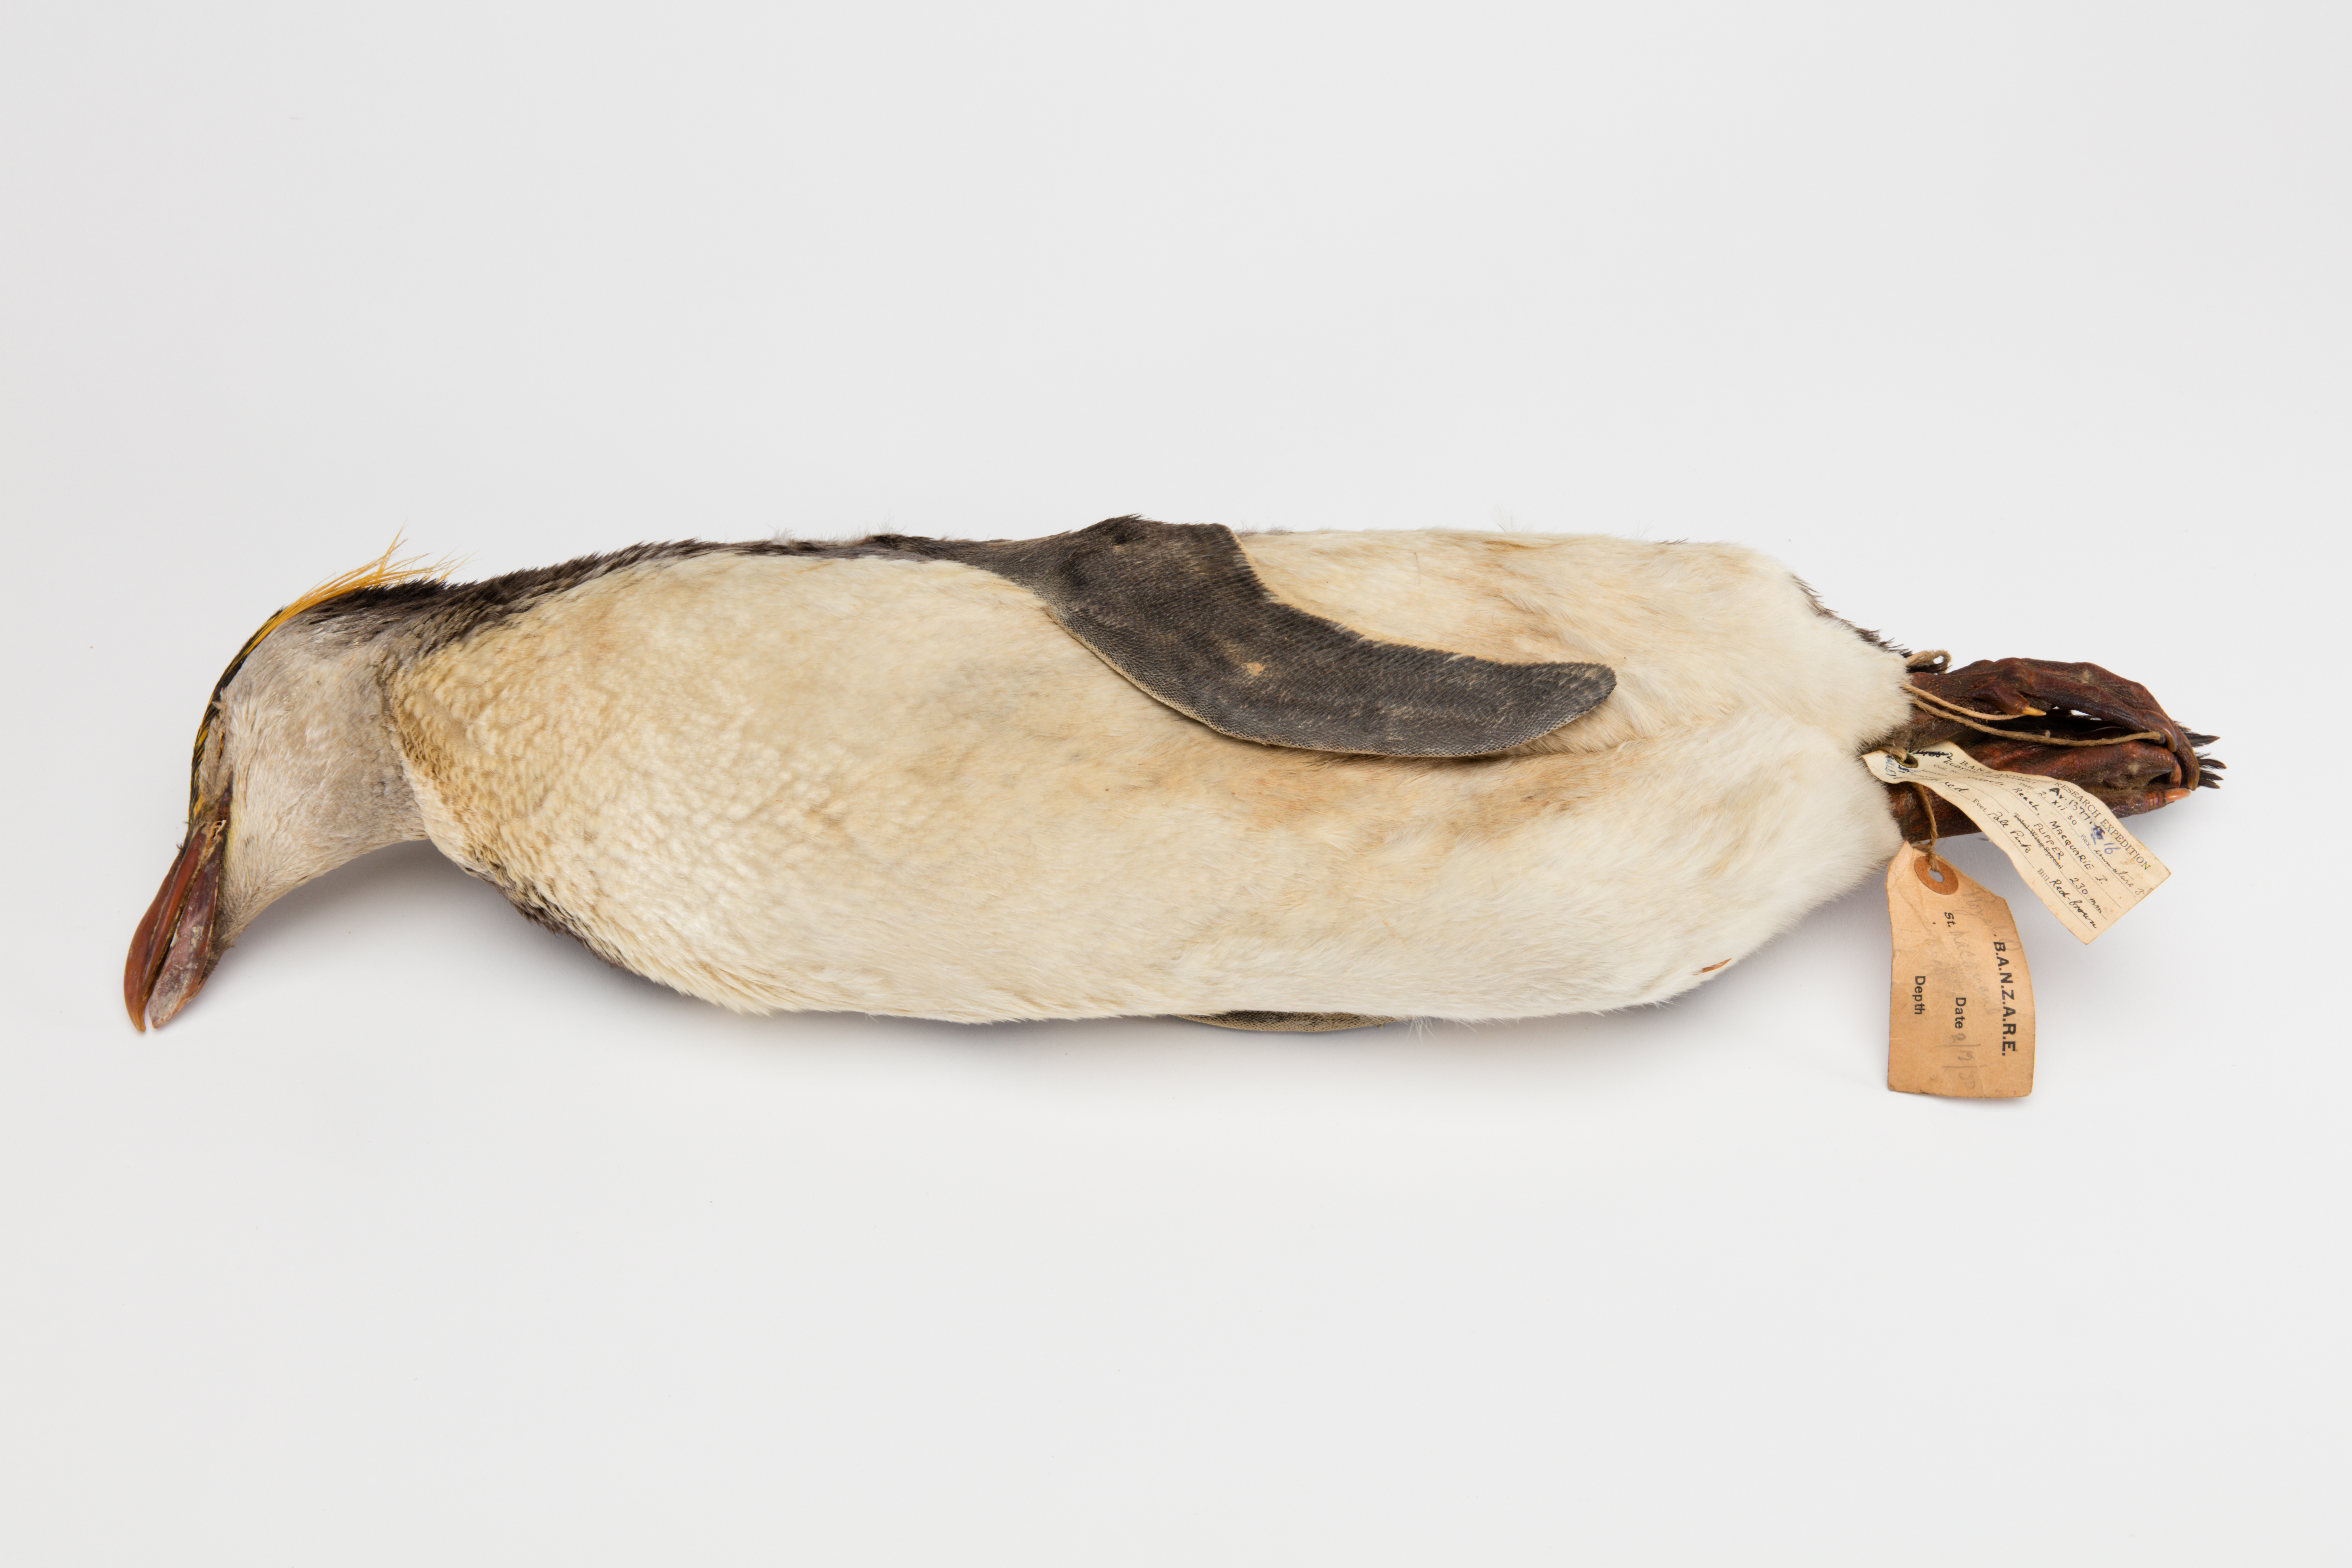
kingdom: Animalia
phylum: Chordata
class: Aves
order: Sphenisciformes
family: Spheniscidae
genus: Eudyptes
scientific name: Eudyptes chrysolophus
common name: Macaroni penguin
